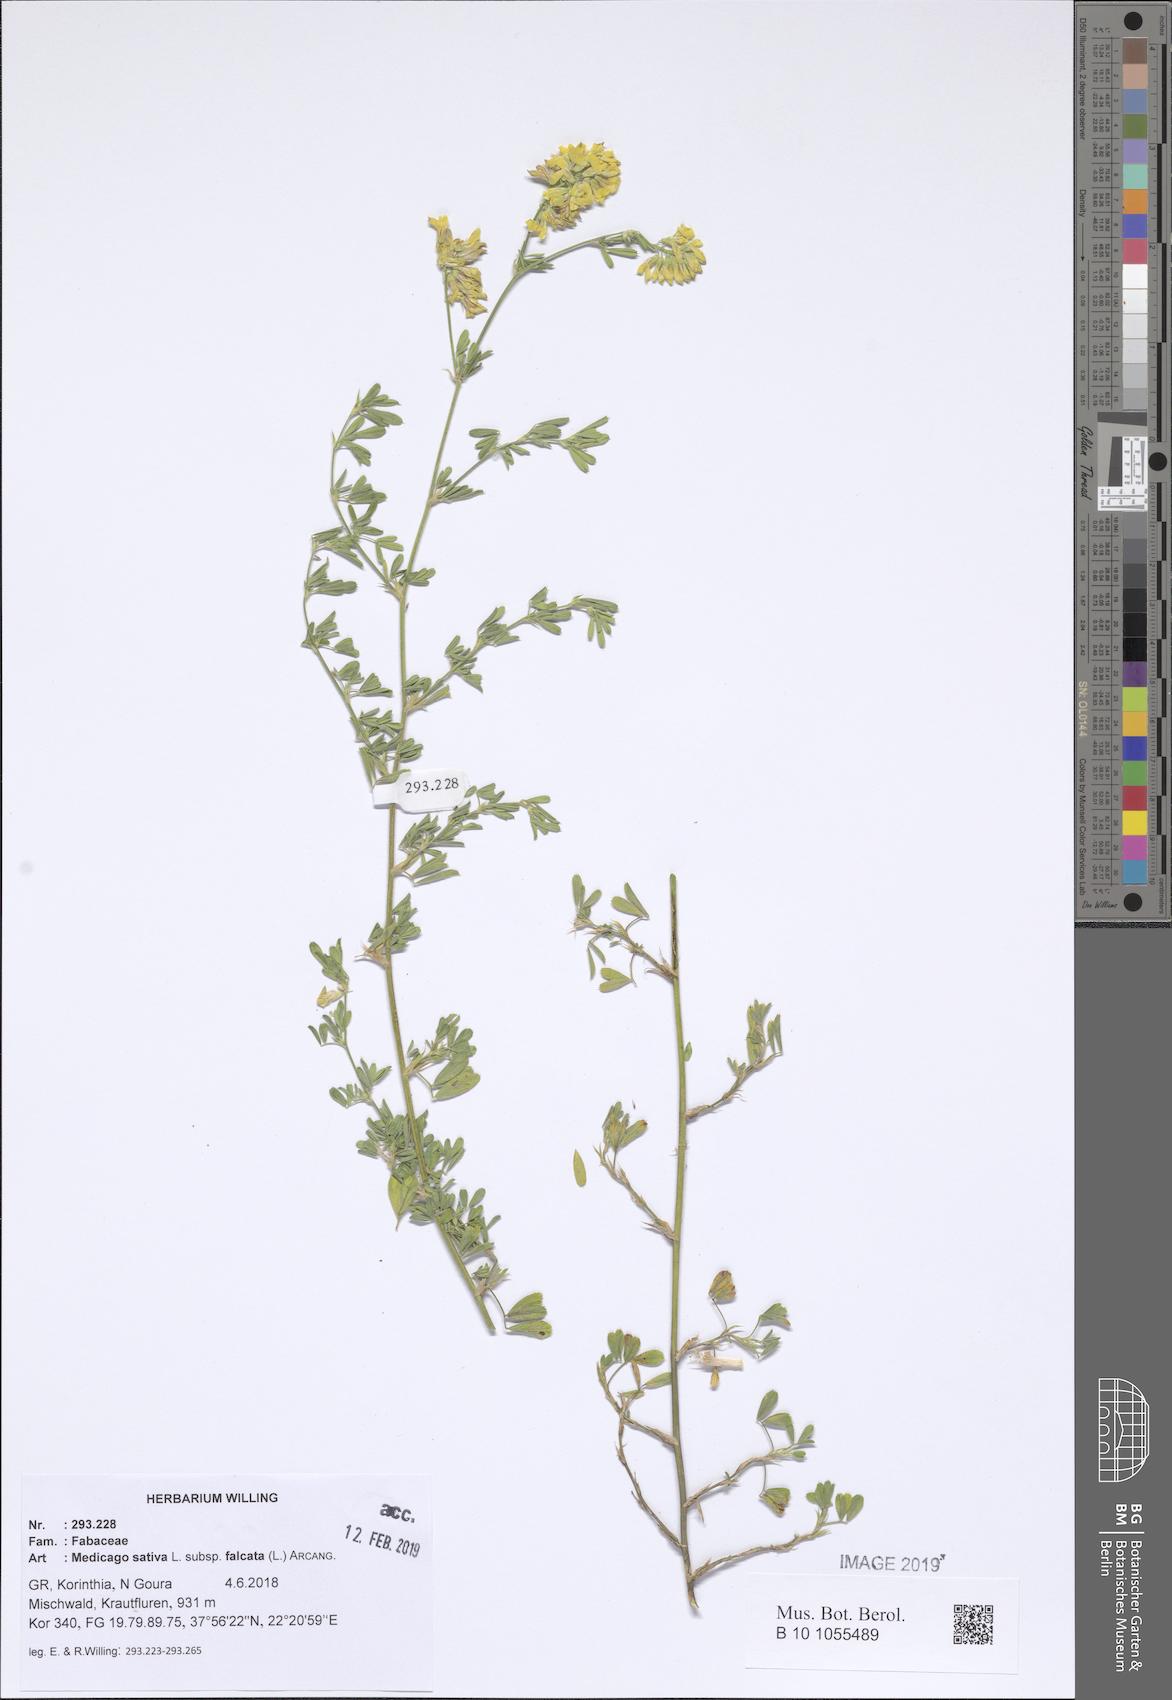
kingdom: Plantae
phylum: Tracheophyta
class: Magnoliopsida
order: Fabales
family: Fabaceae
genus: Medicago
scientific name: Medicago falcata
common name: Sickle medick
